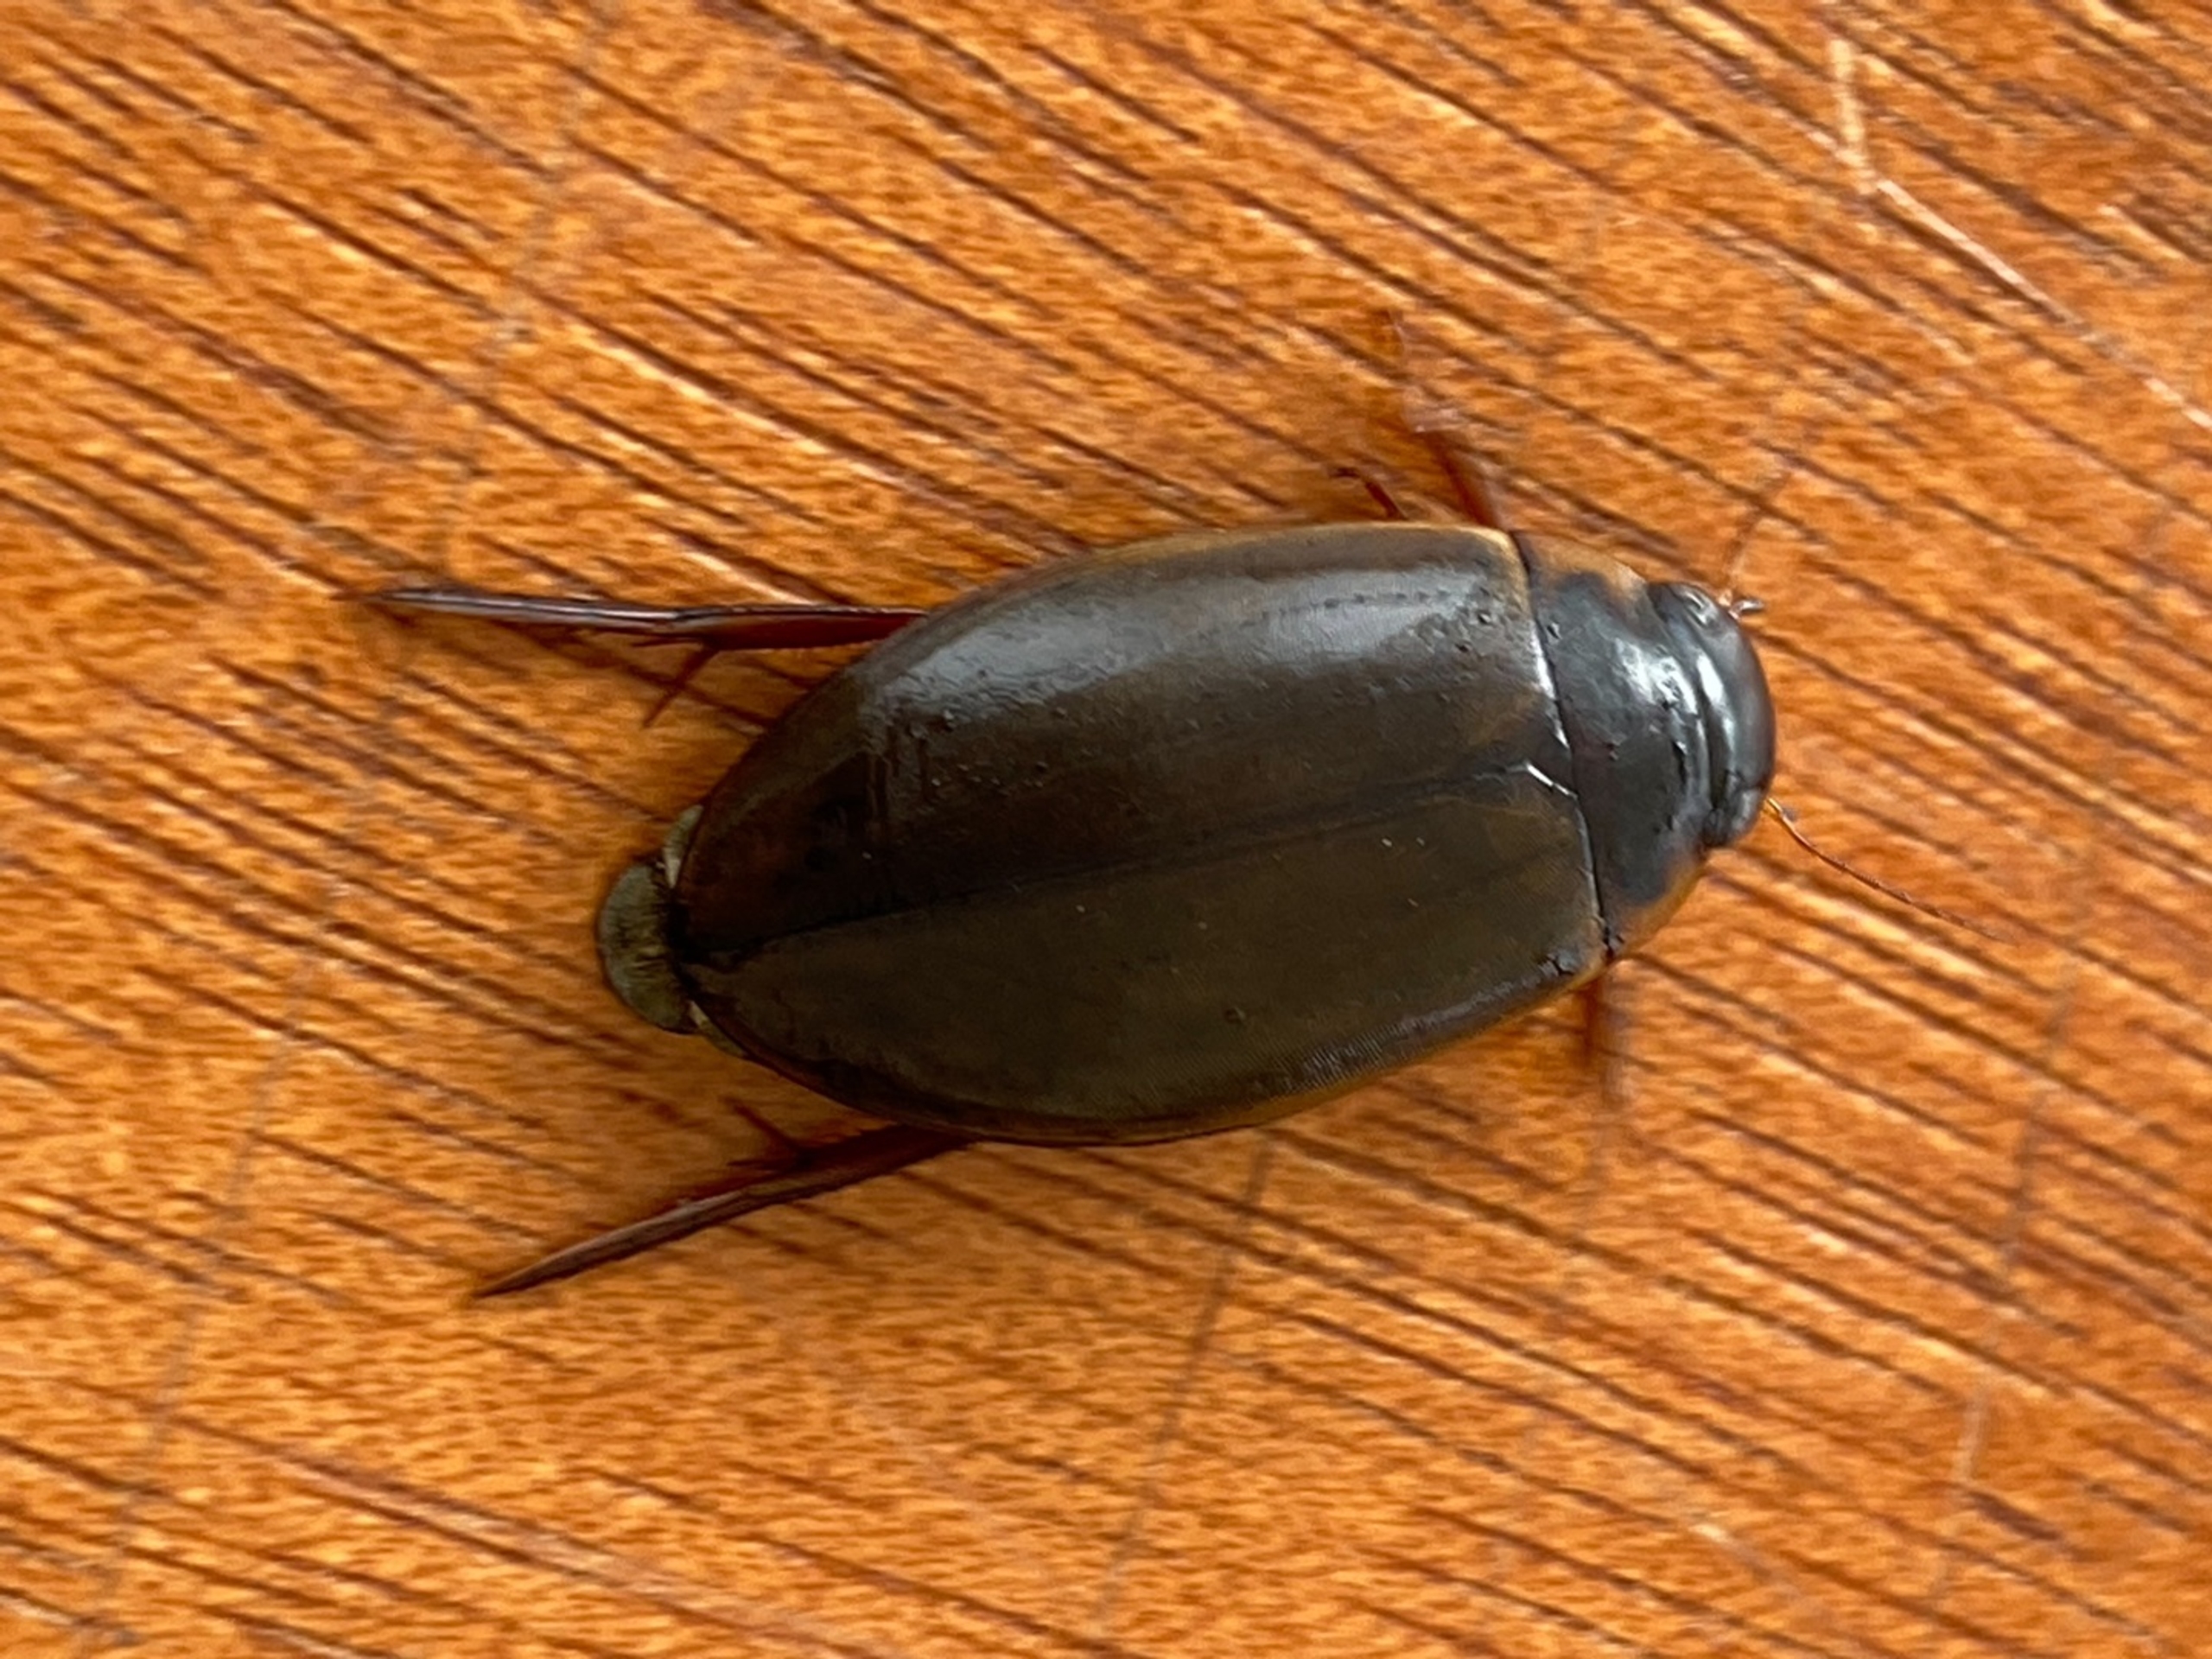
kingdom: Animalia
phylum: Arthropoda
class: Insecta
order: Coleoptera
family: Dytiscidae
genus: Colymbetes
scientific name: Colymbetes fuscus
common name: Tværridset vandkalv
